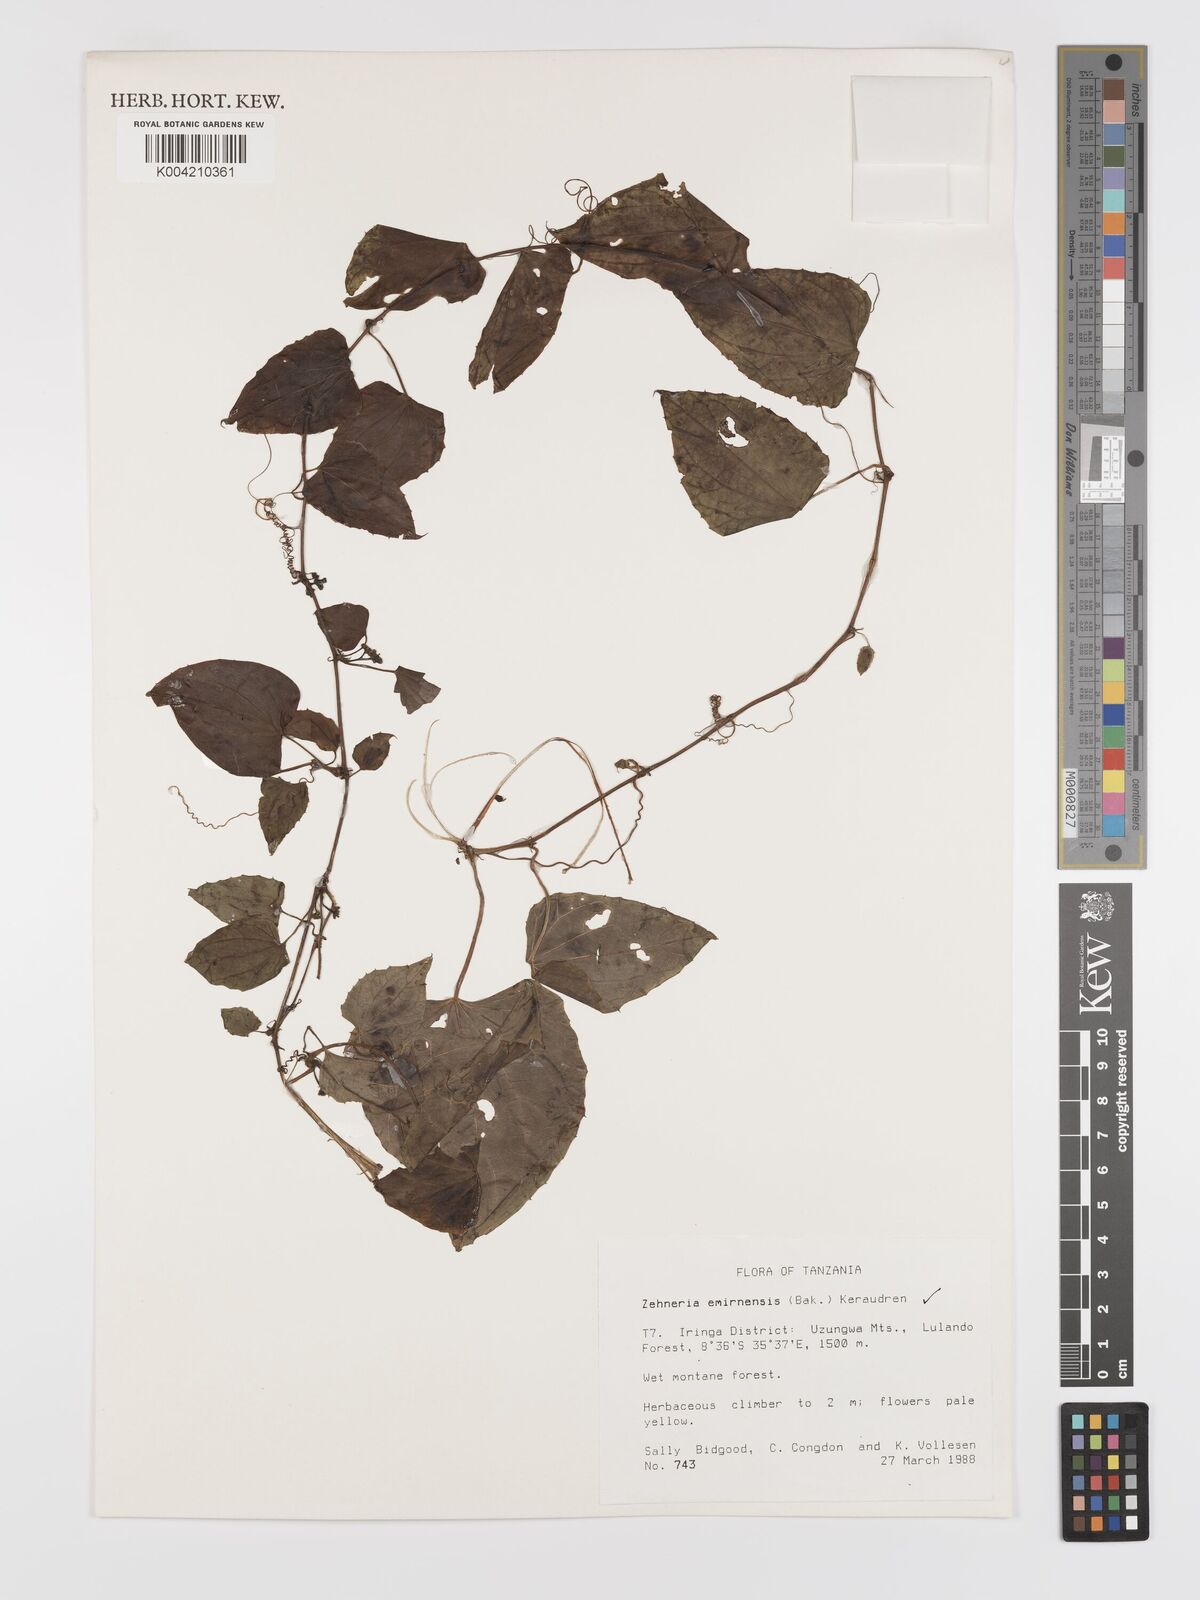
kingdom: Plantae
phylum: Tracheophyta
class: Magnoliopsida
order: Cucurbitales
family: Cucurbitaceae
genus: Zehneria
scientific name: Zehneria emirnensis
